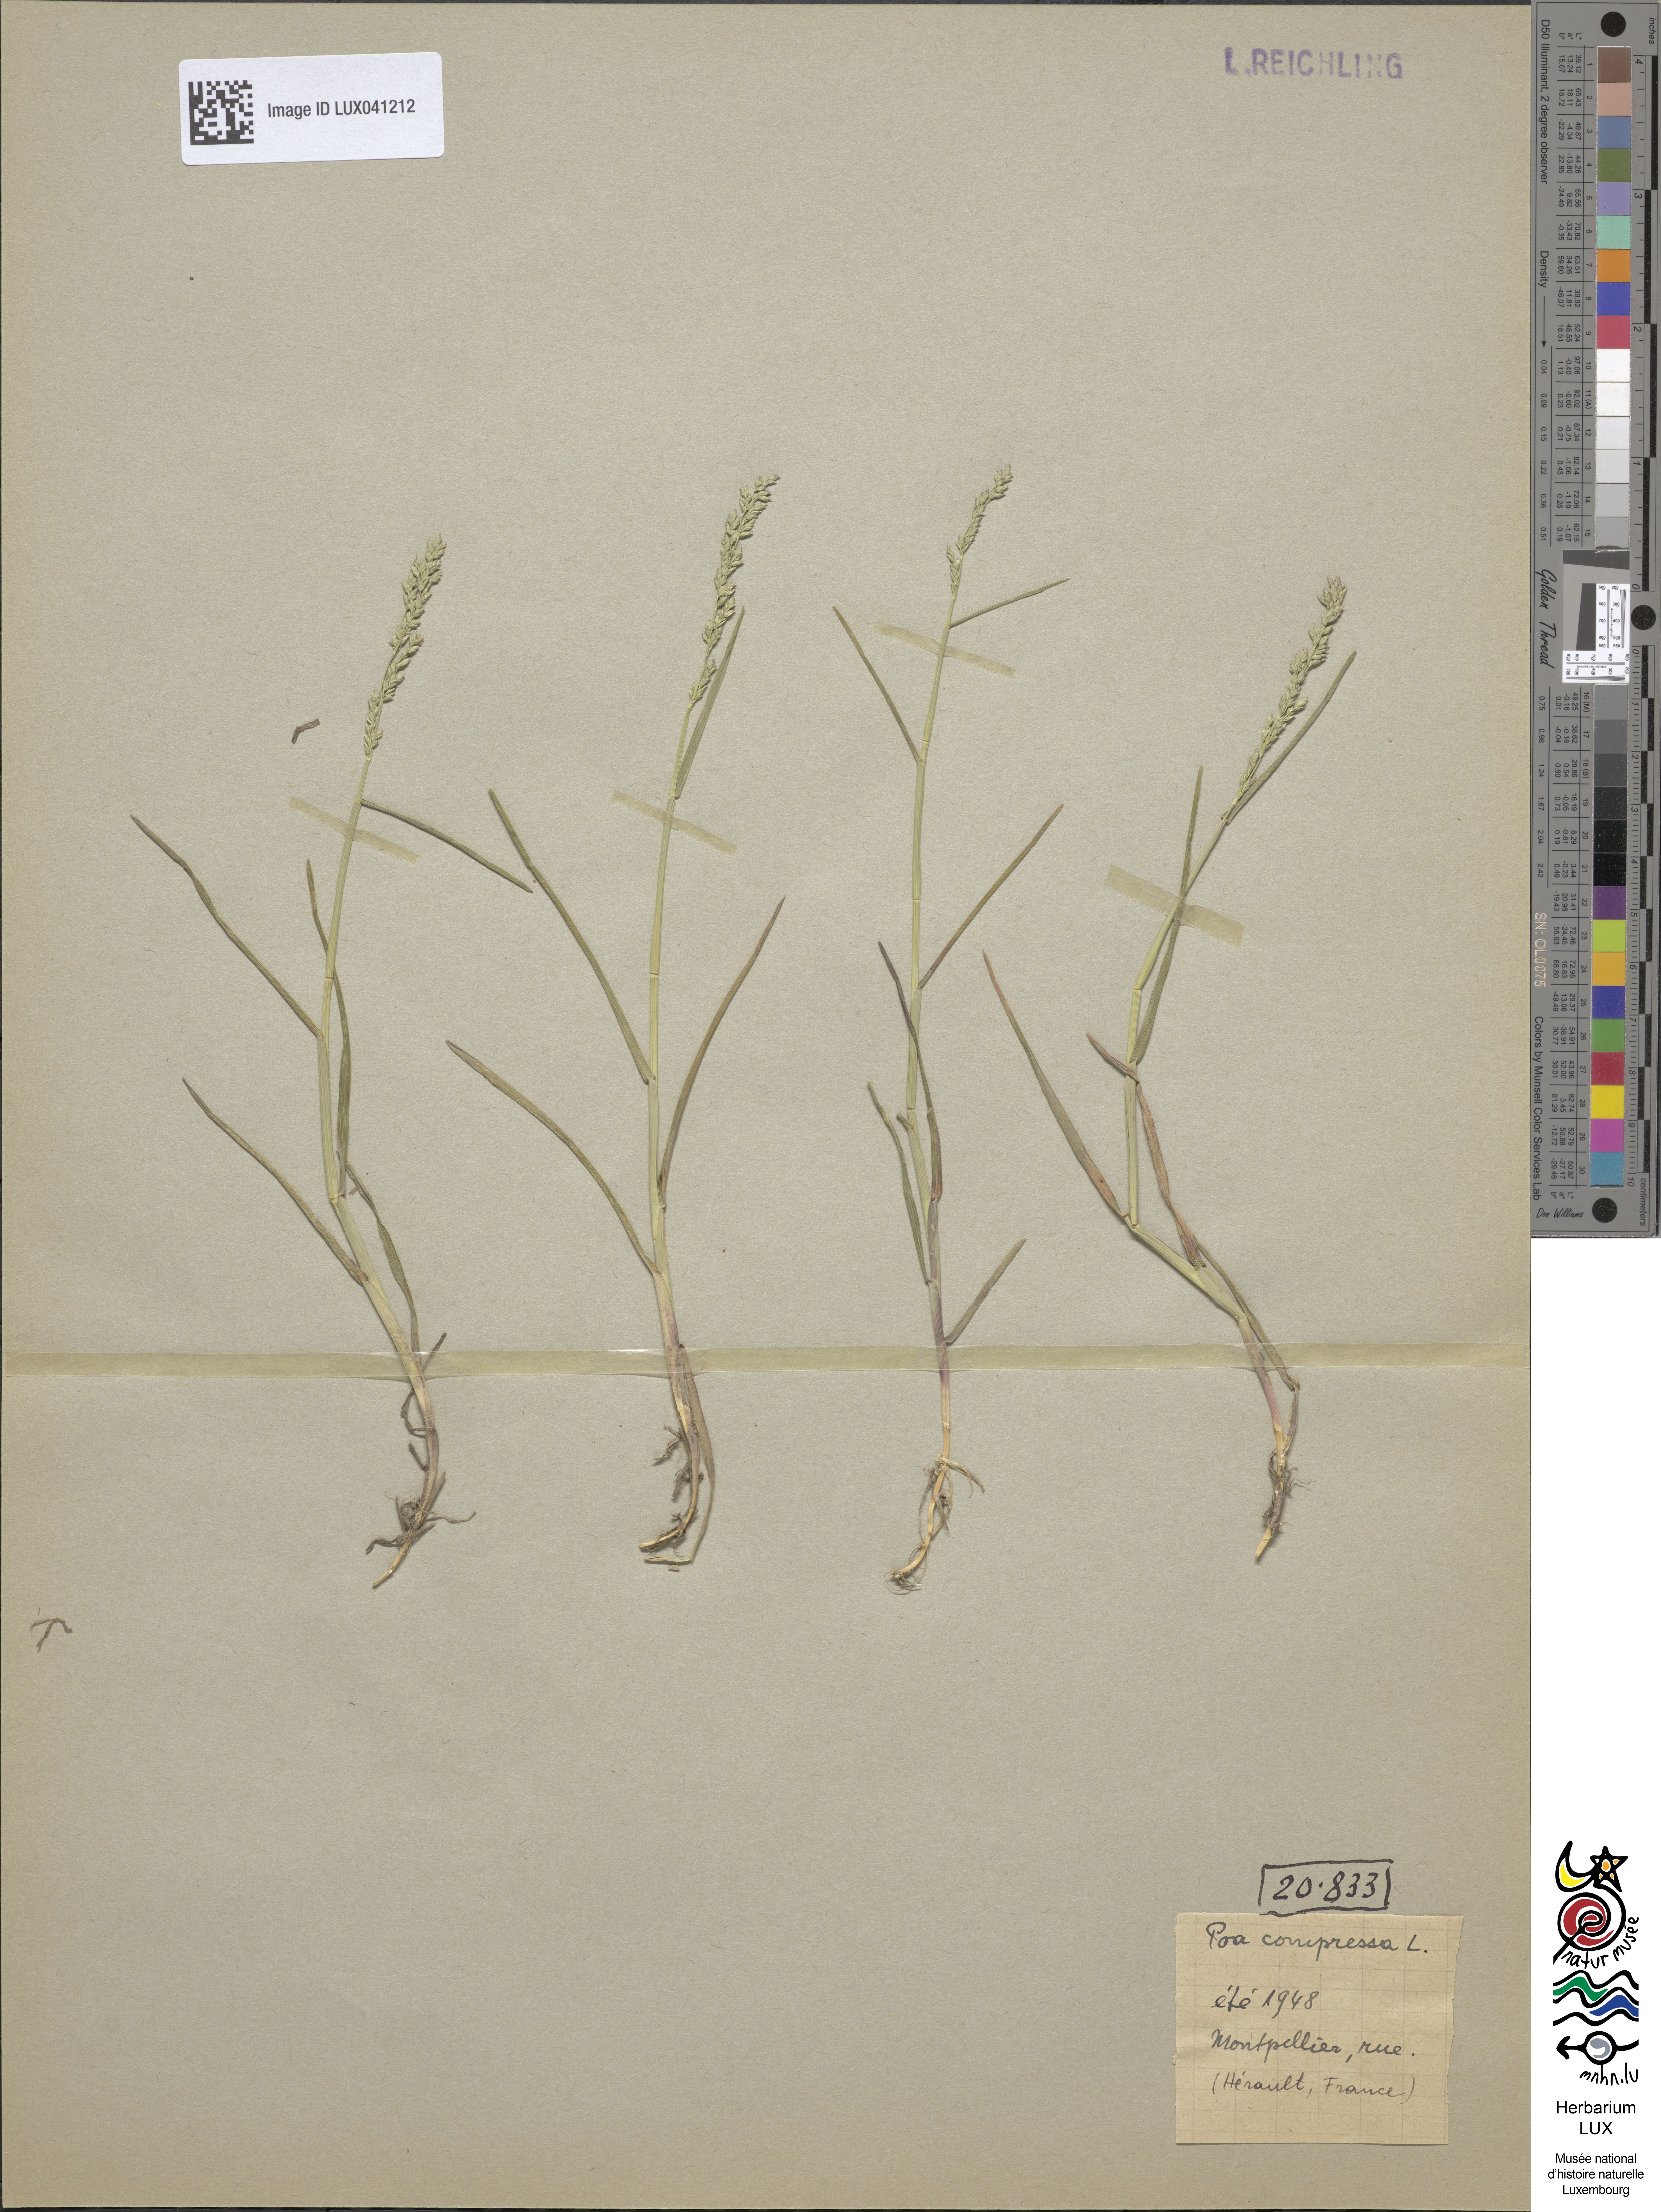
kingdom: Plantae
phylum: Tracheophyta
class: Liliopsida
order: Poales
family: Poaceae
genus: Poa
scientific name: Poa compressa
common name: Canada bluegrass
